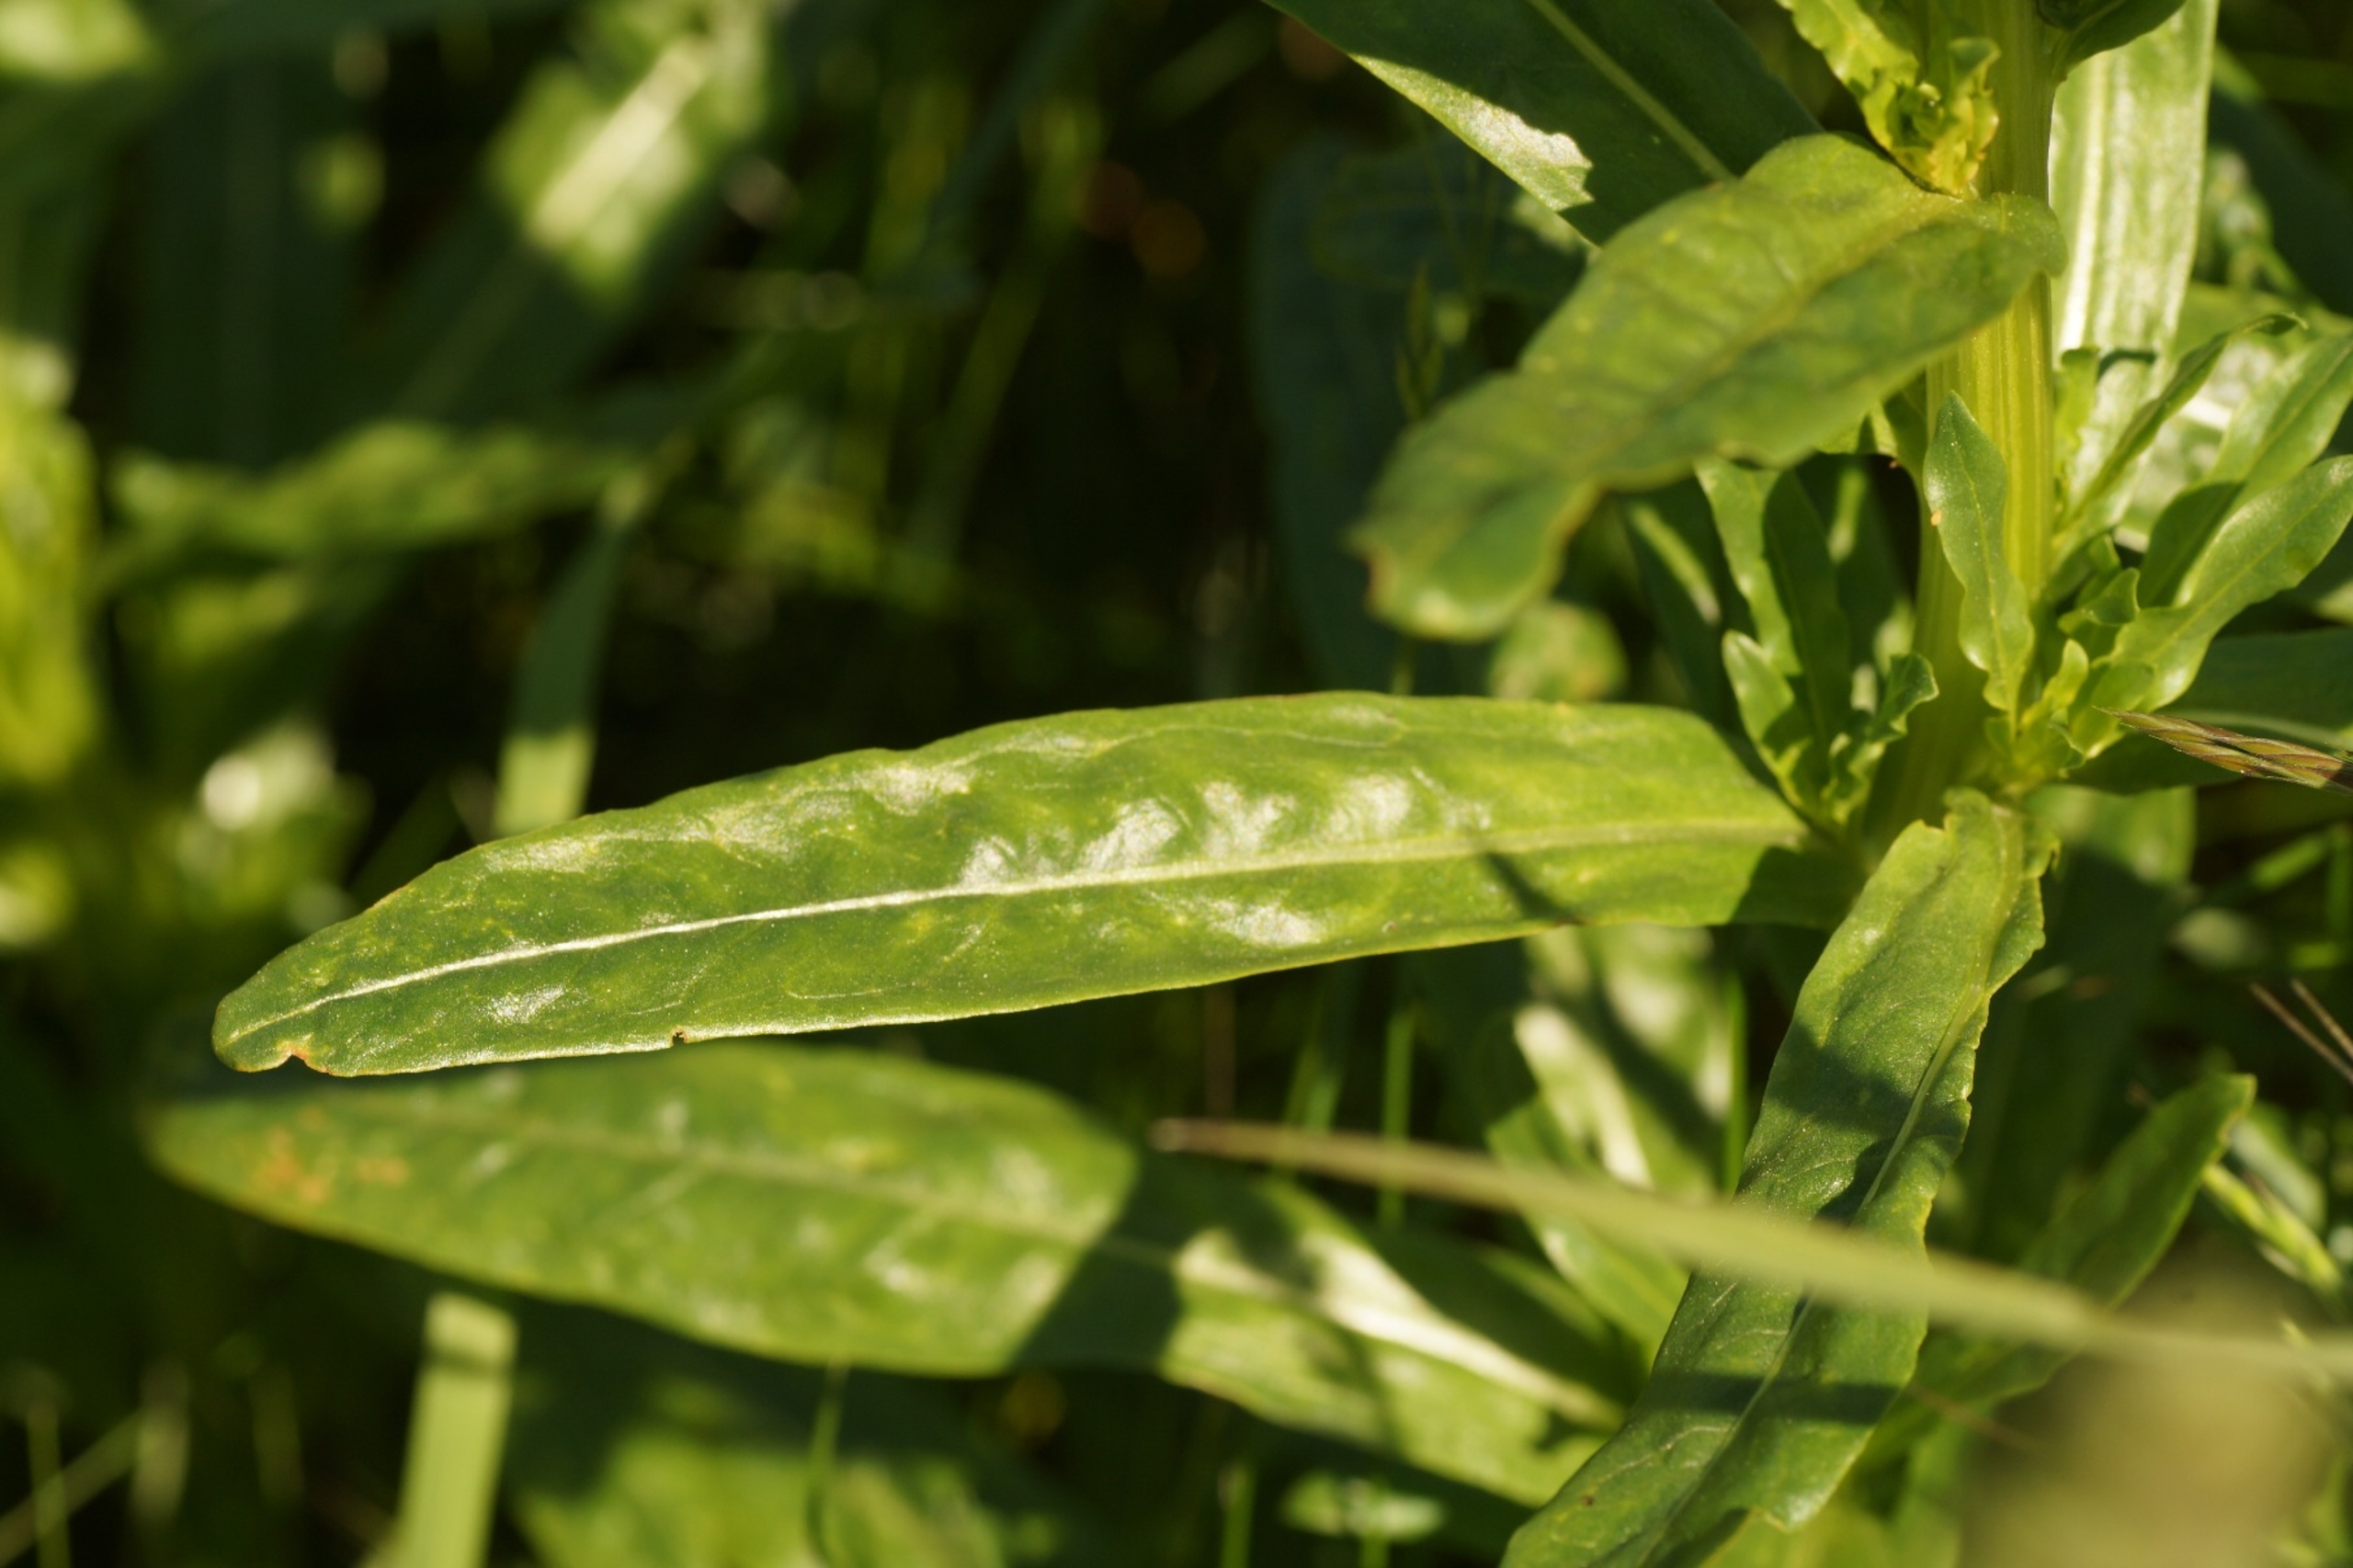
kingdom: Plantae
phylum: Tracheophyta
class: Magnoliopsida
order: Brassicales
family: Resedaceae
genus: Reseda
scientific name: Reseda luteola
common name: Farve-reseda
